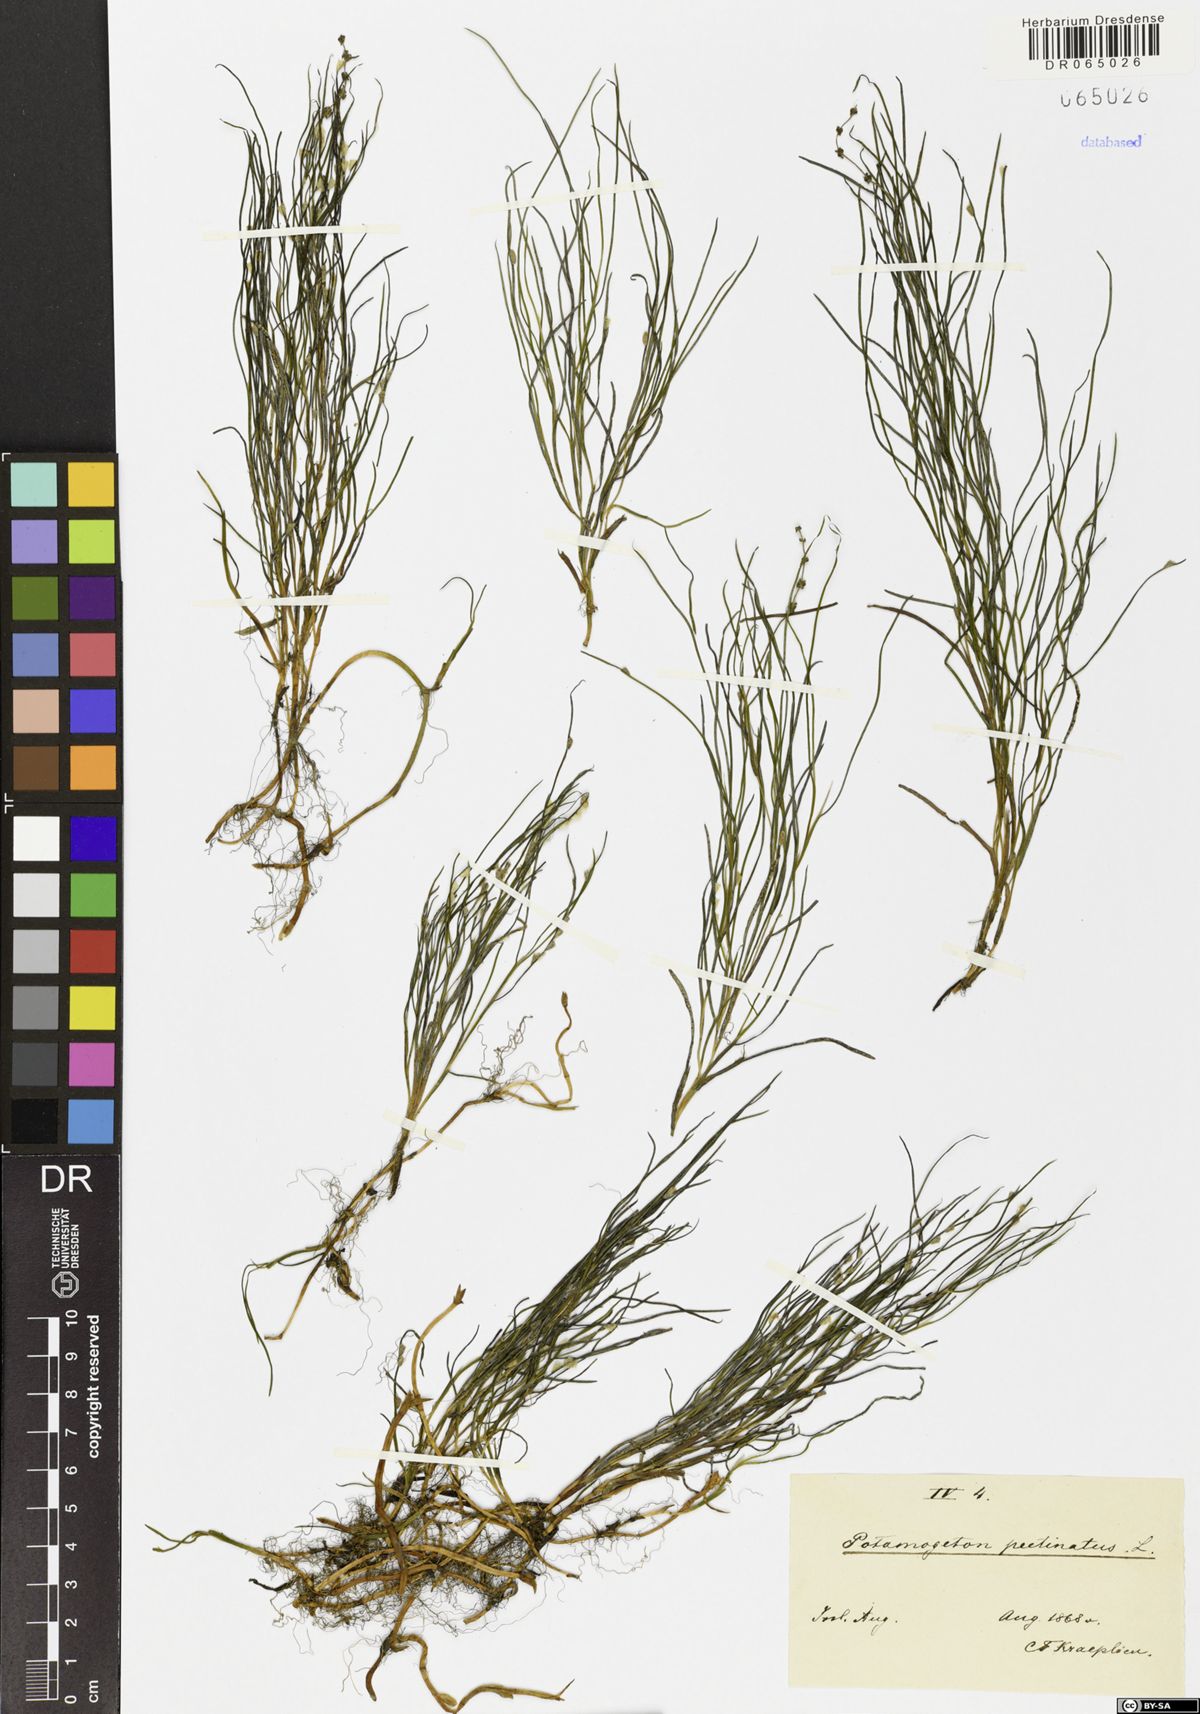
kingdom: Plantae
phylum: Tracheophyta
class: Liliopsida
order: Alismatales
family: Potamogetonaceae
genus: Stuckenia
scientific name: Stuckenia pectinata
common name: Sago pondweed
